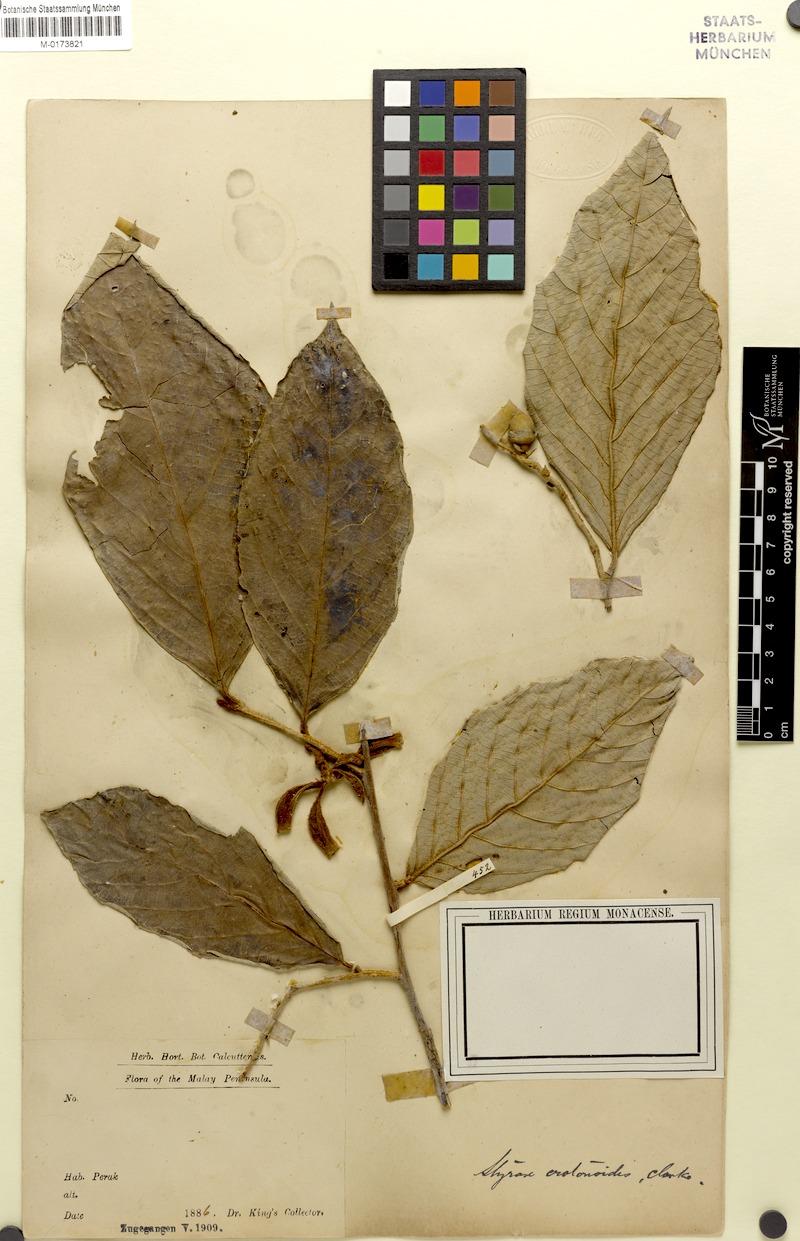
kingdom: Plantae
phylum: Tracheophyta
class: Magnoliopsida
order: Ericales
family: Styracaceae
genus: Styrax
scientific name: Styrax crotonoides
